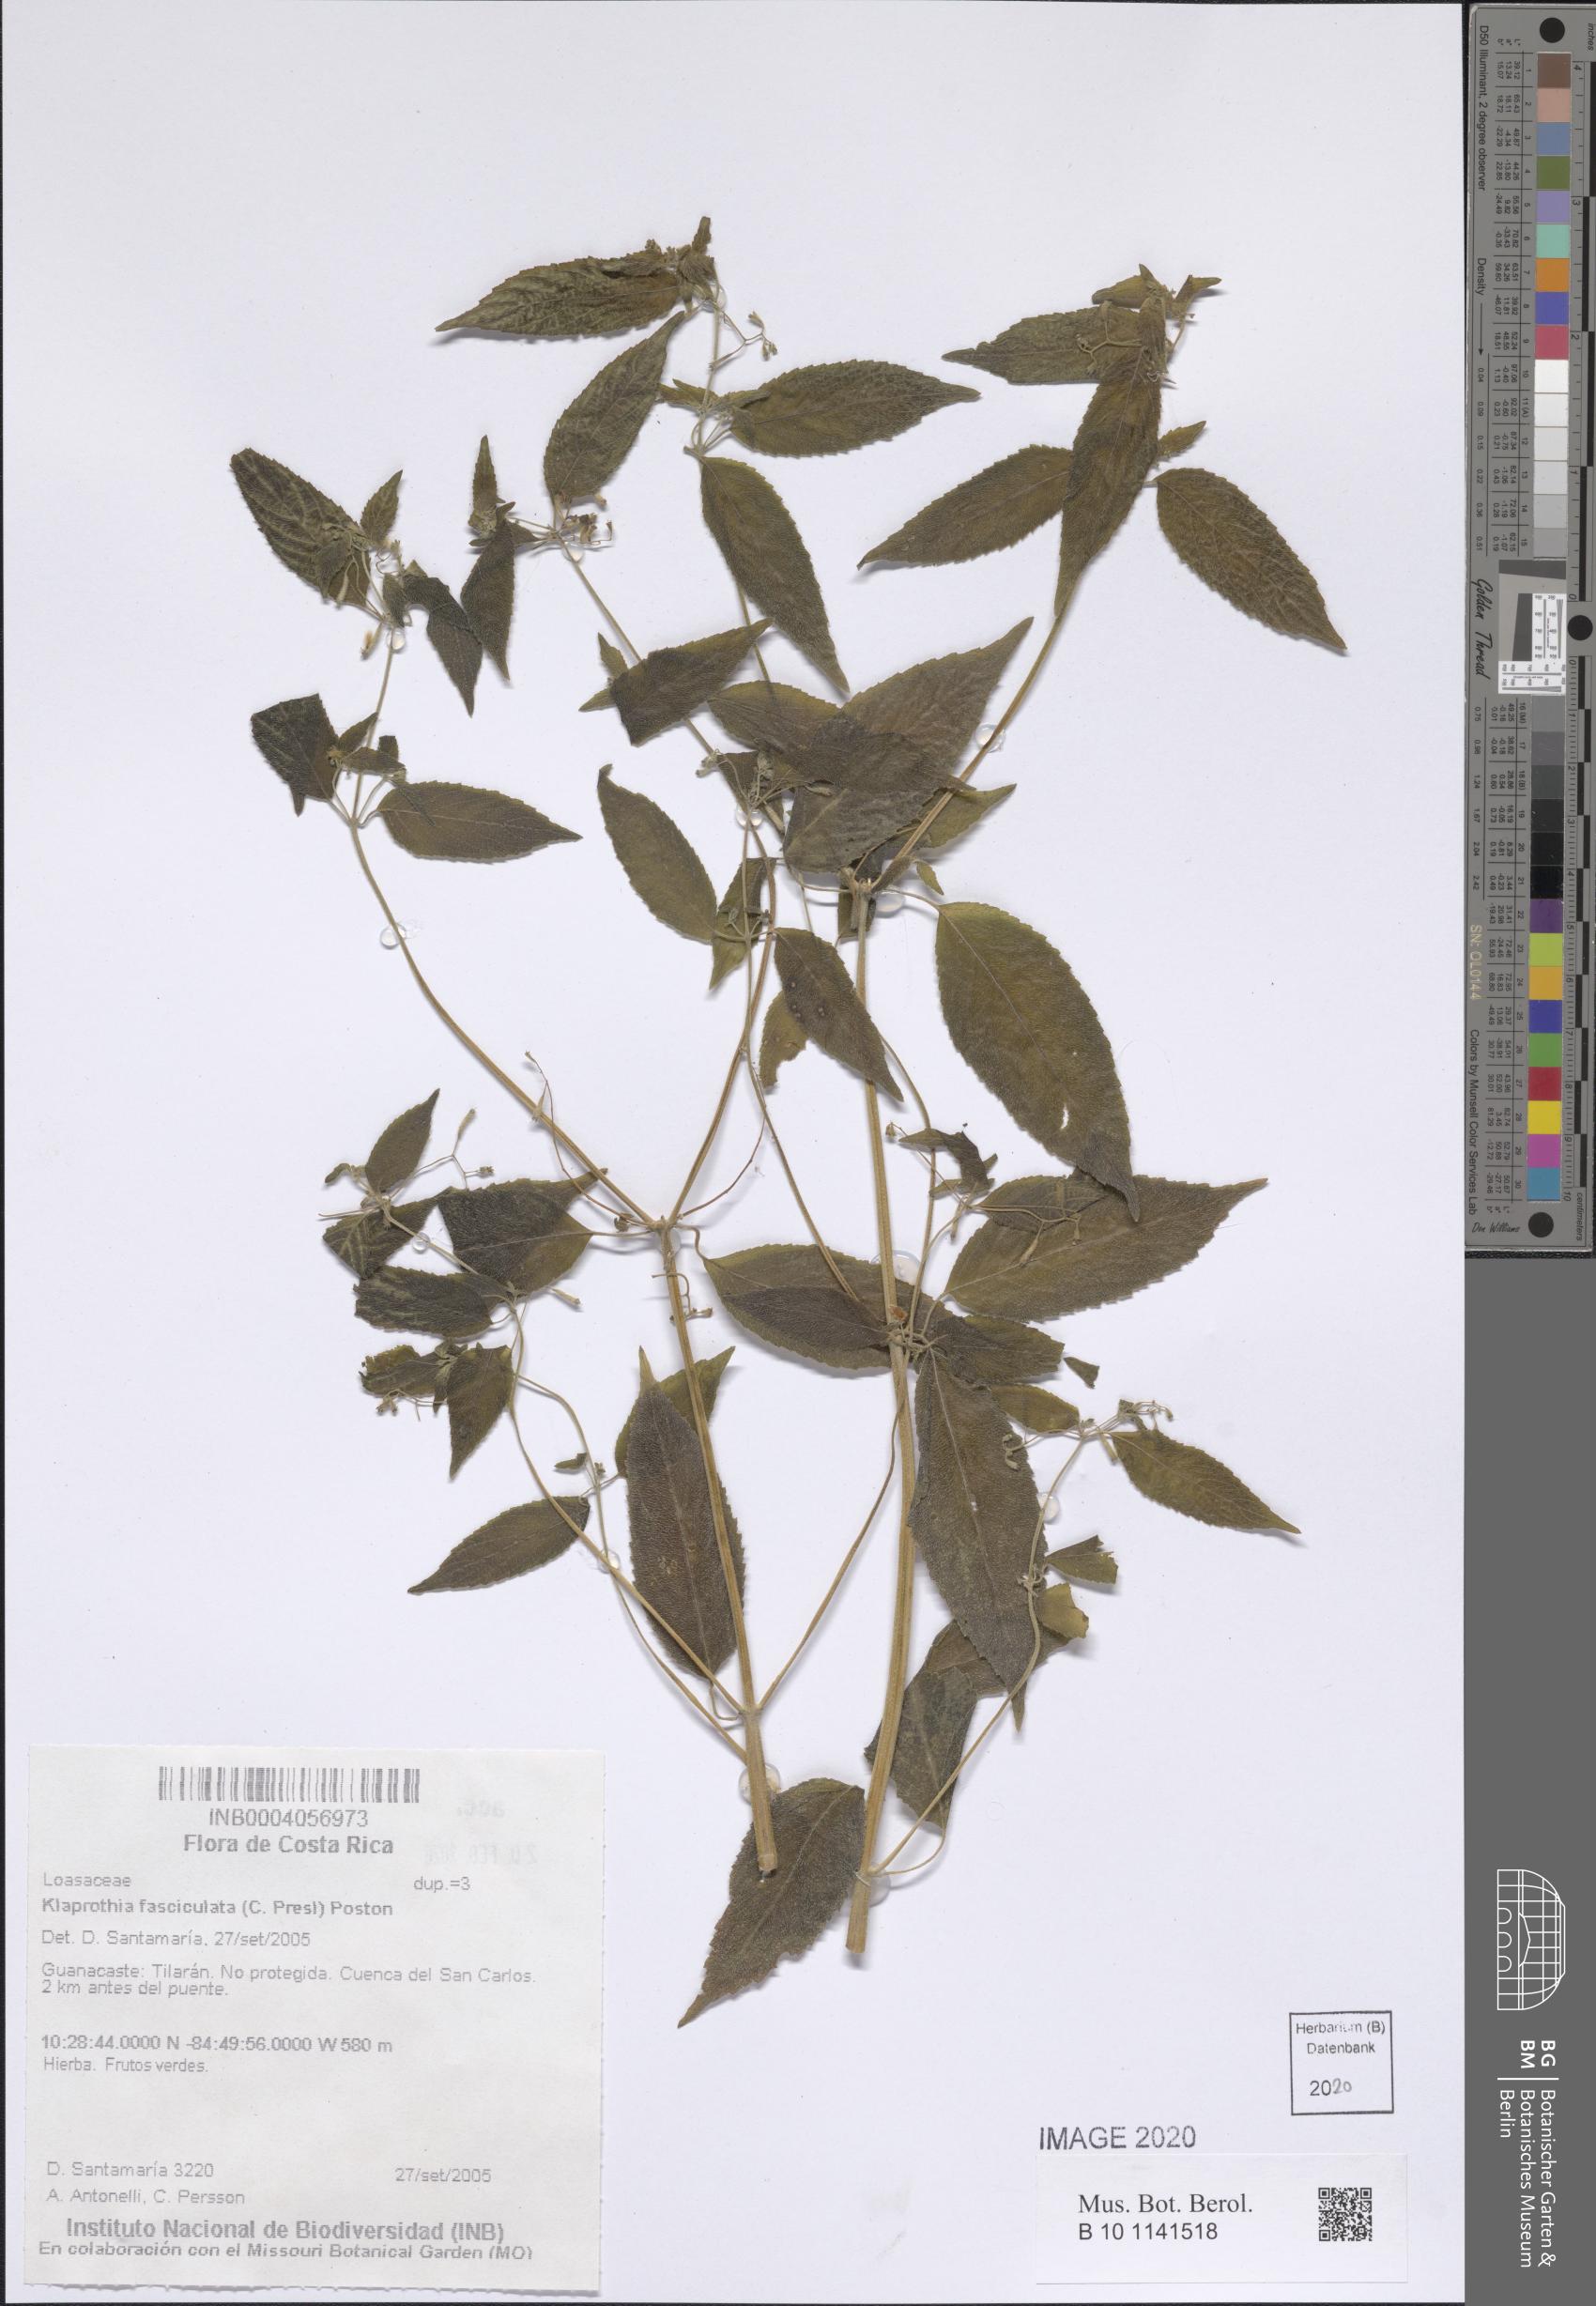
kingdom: Plantae
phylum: Tracheophyta
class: Magnoliopsida
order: Cornales
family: Loasaceae
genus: Klaprothia
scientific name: Klaprothia fasciculata
